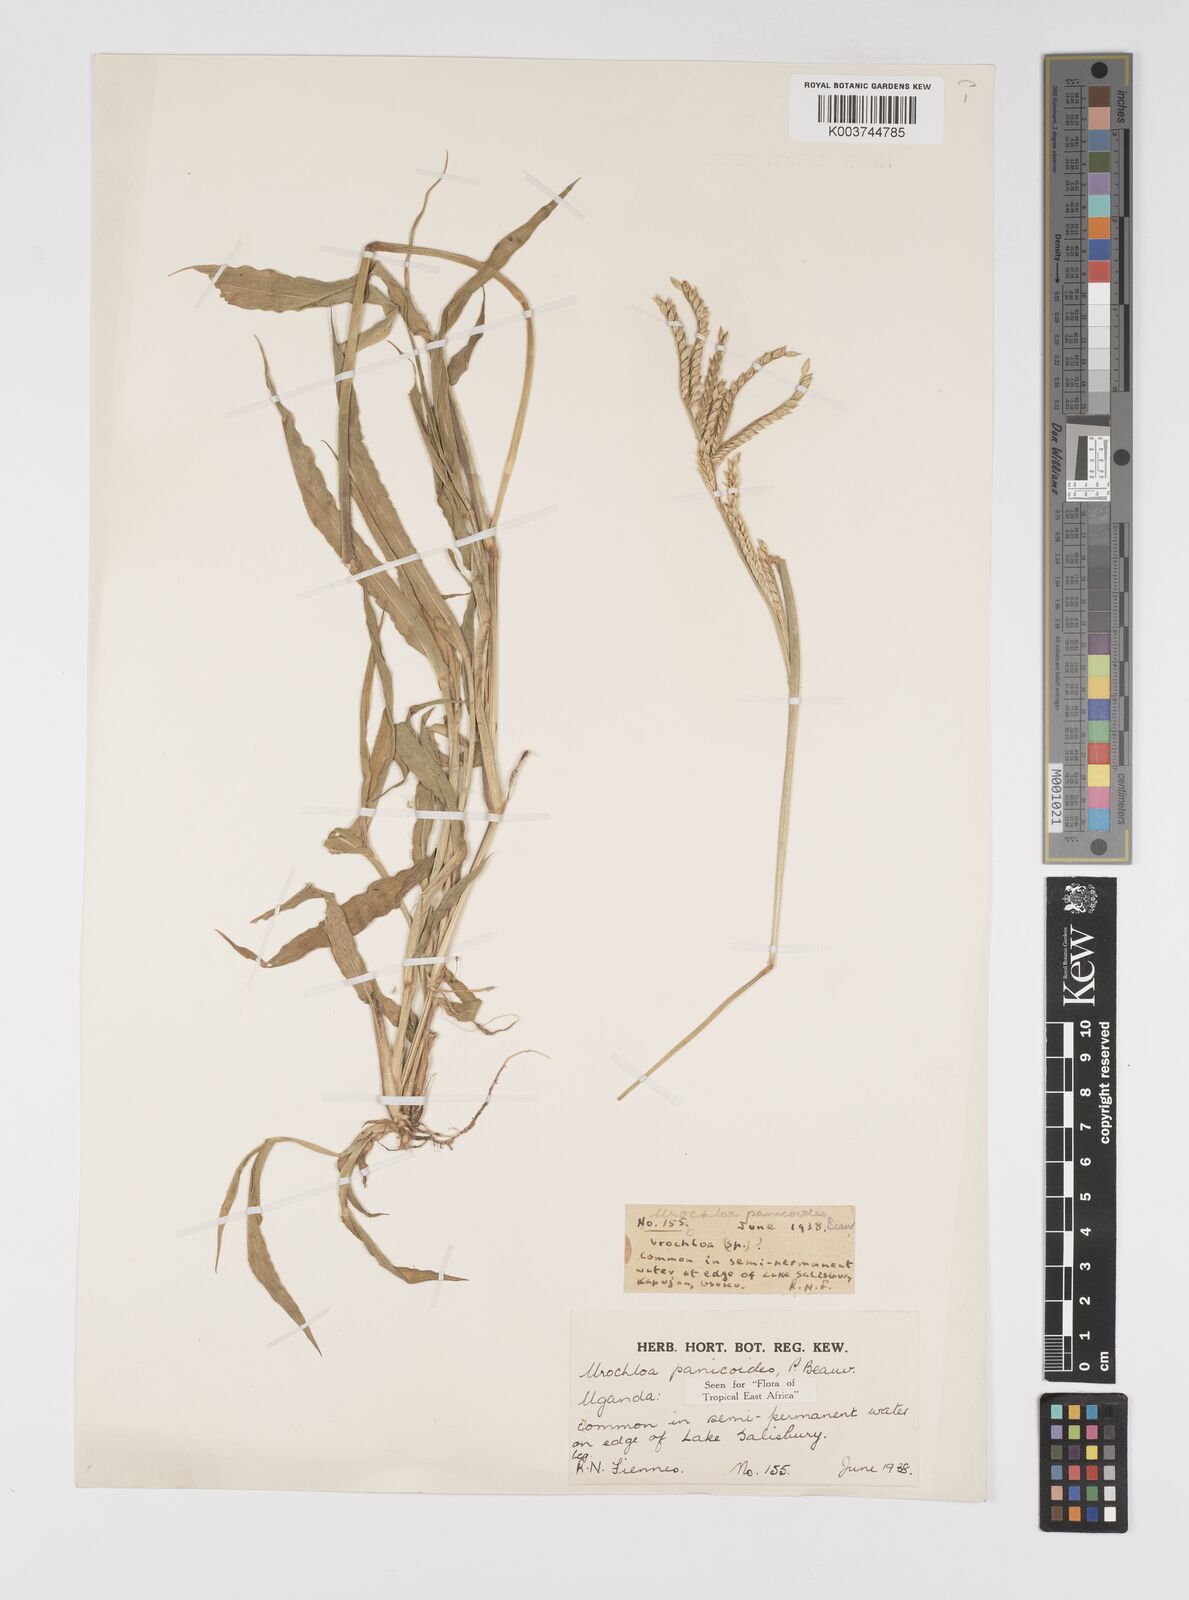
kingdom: Plantae
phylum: Tracheophyta
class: Liliopsida
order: Poales
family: Poaceae
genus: Urochloa
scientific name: Urochloa panicoides
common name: Sharp-flowered signal-grass
